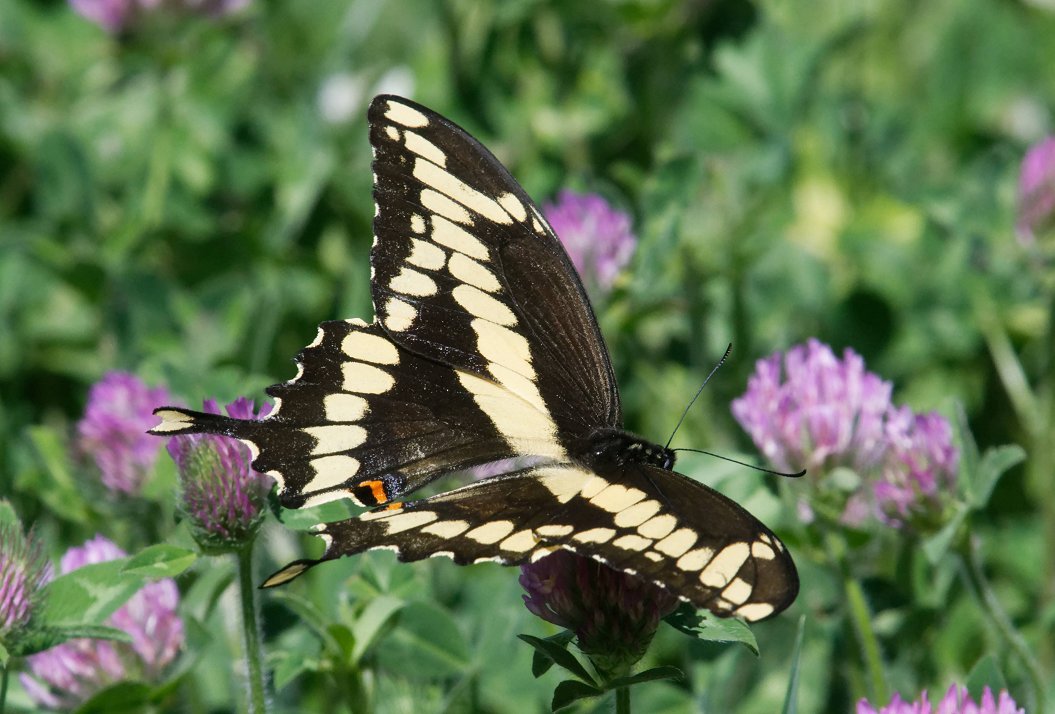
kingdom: Animalia
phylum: Arthropoda
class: Insecta
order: Lepidoptera
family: Papilionidae
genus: Papilio
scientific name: Papilio cresphontes
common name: Eastern Giant Swallowtail
